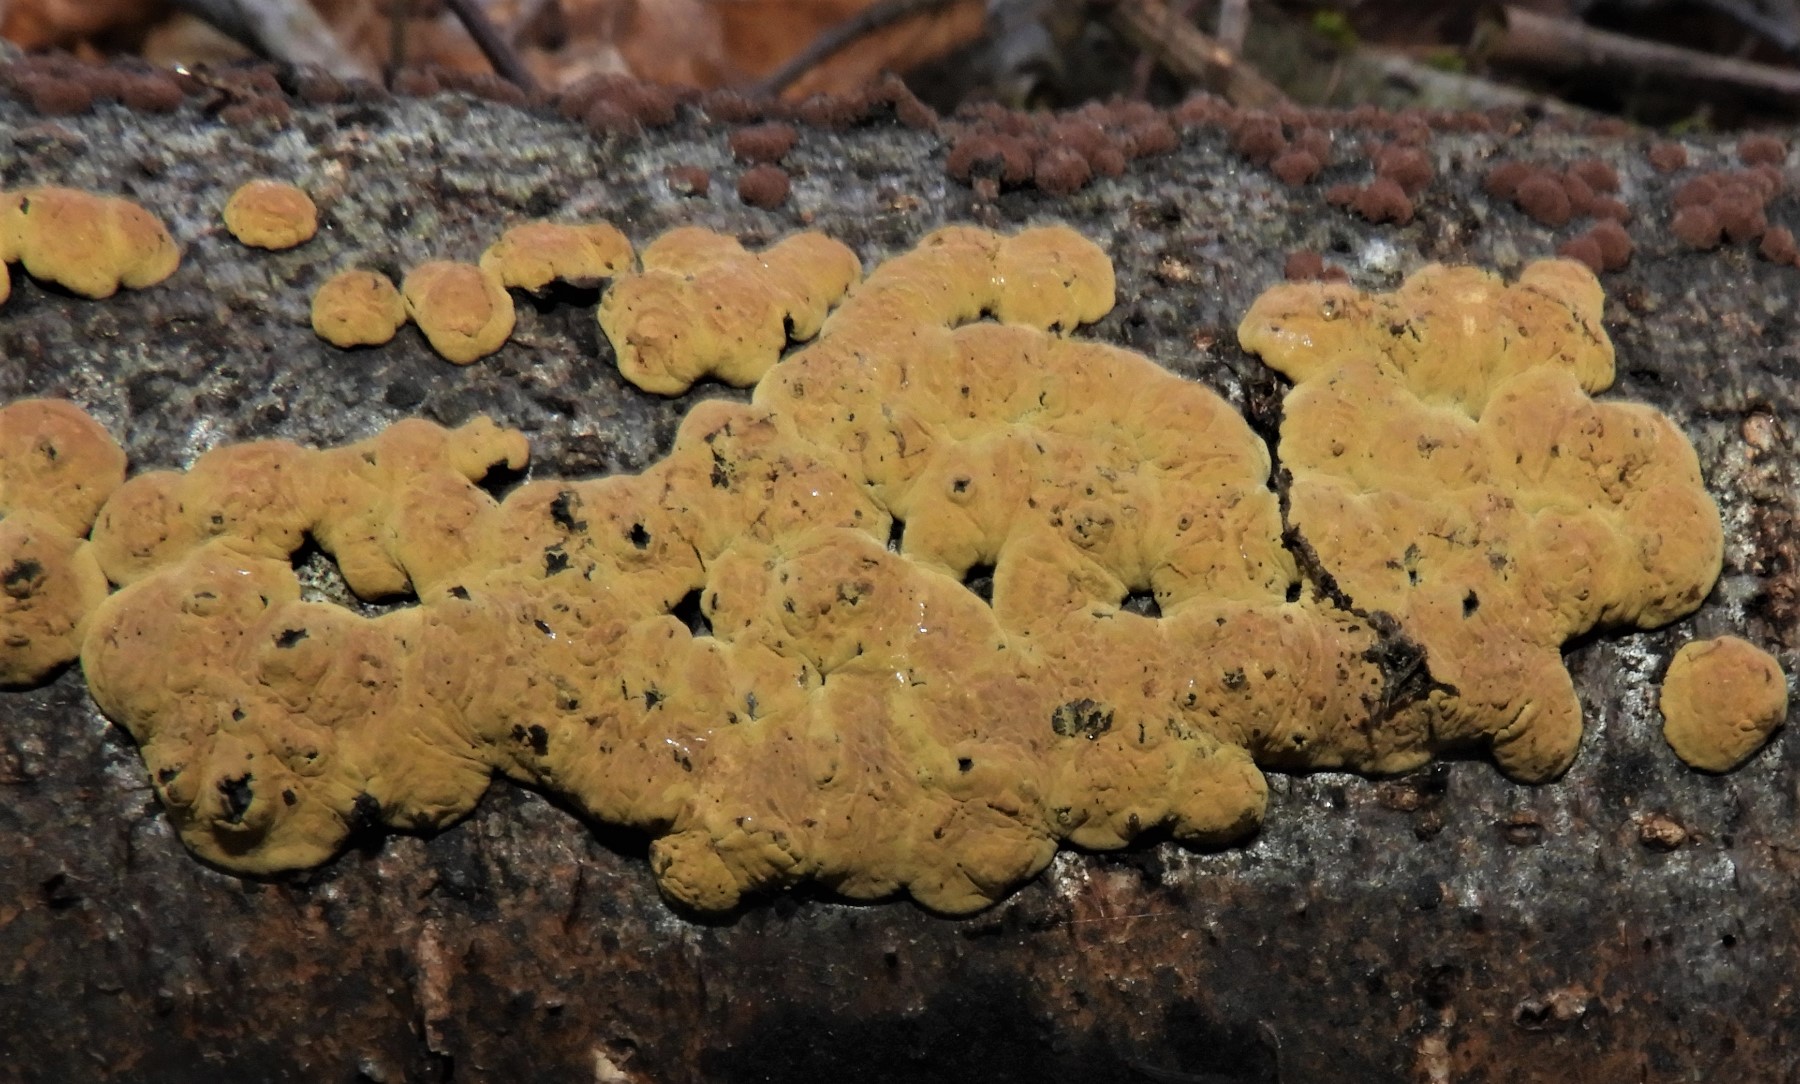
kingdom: Fungi
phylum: Ascomycota
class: Sordariomycetes
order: Xylariales
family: Hypoxylaceae
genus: Jackrogersella
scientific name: Jackrogersella
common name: kulbær
